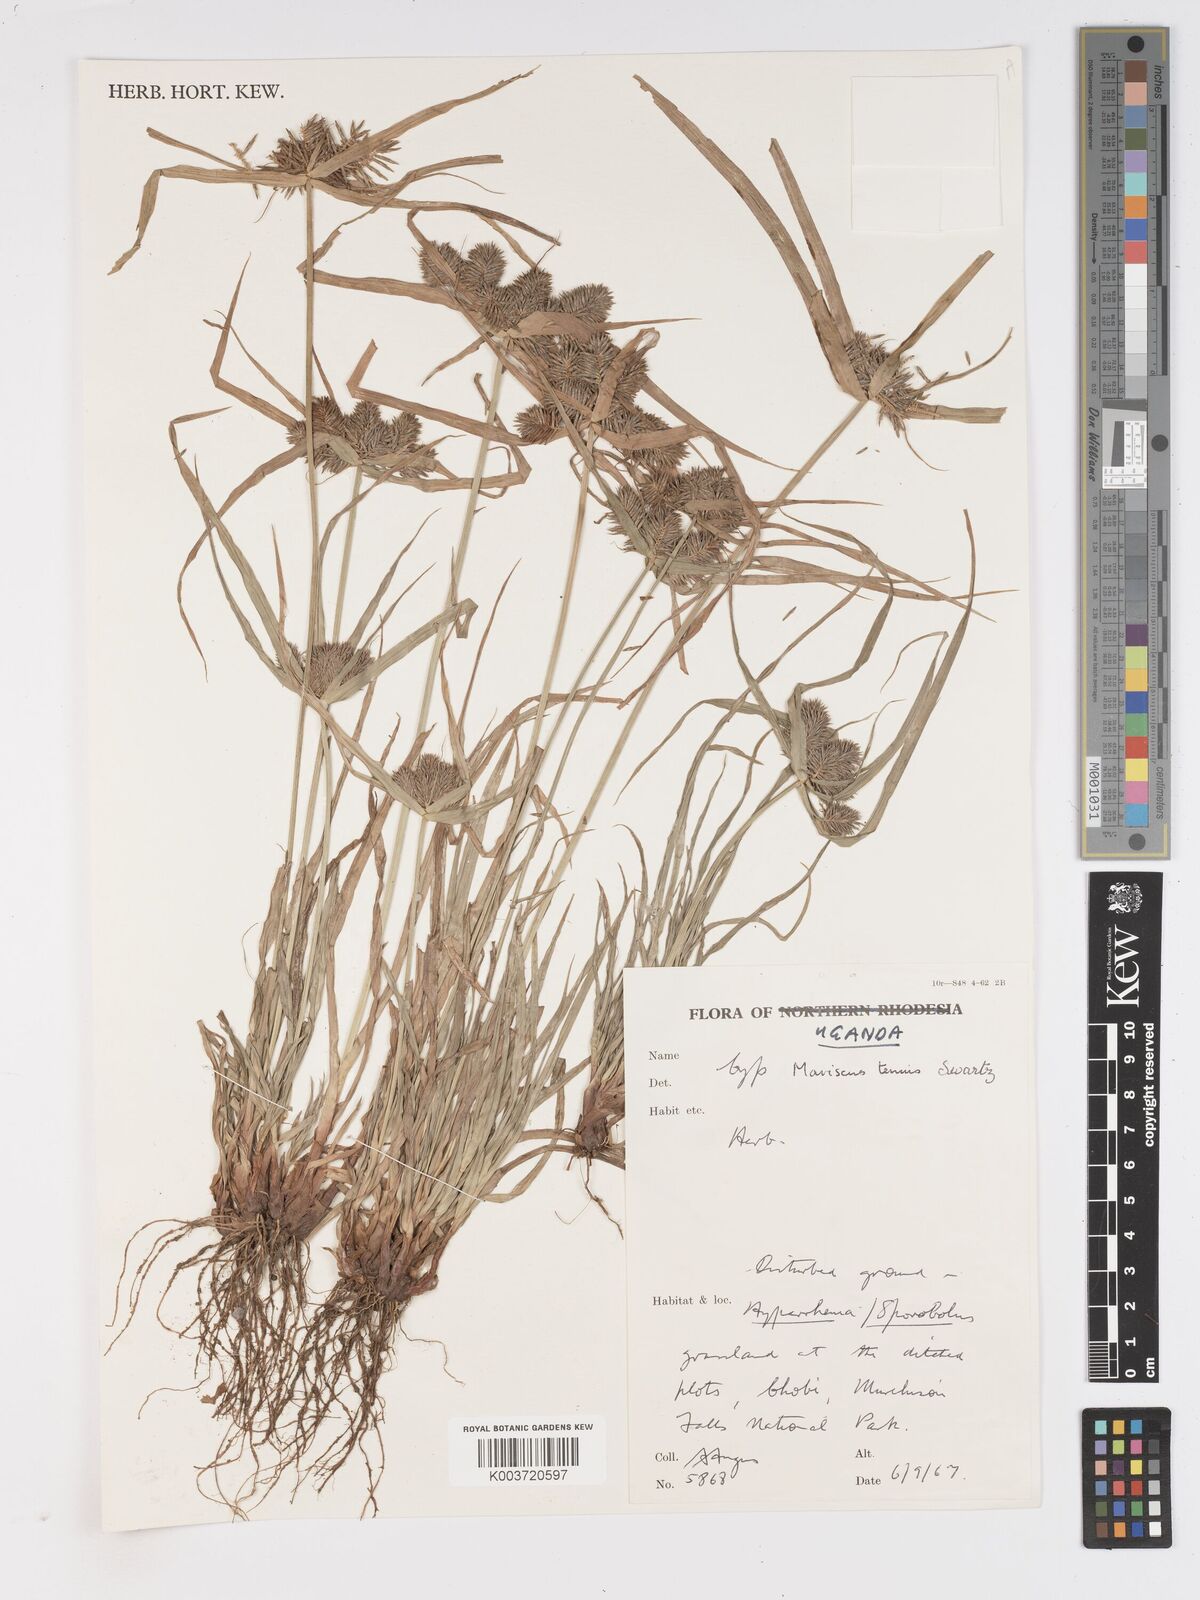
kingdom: Plantae
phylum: Tracheophyta
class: Liliopsida
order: Poales
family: Cyperaceae
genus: Cyperus
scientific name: Cyperus tenuis
